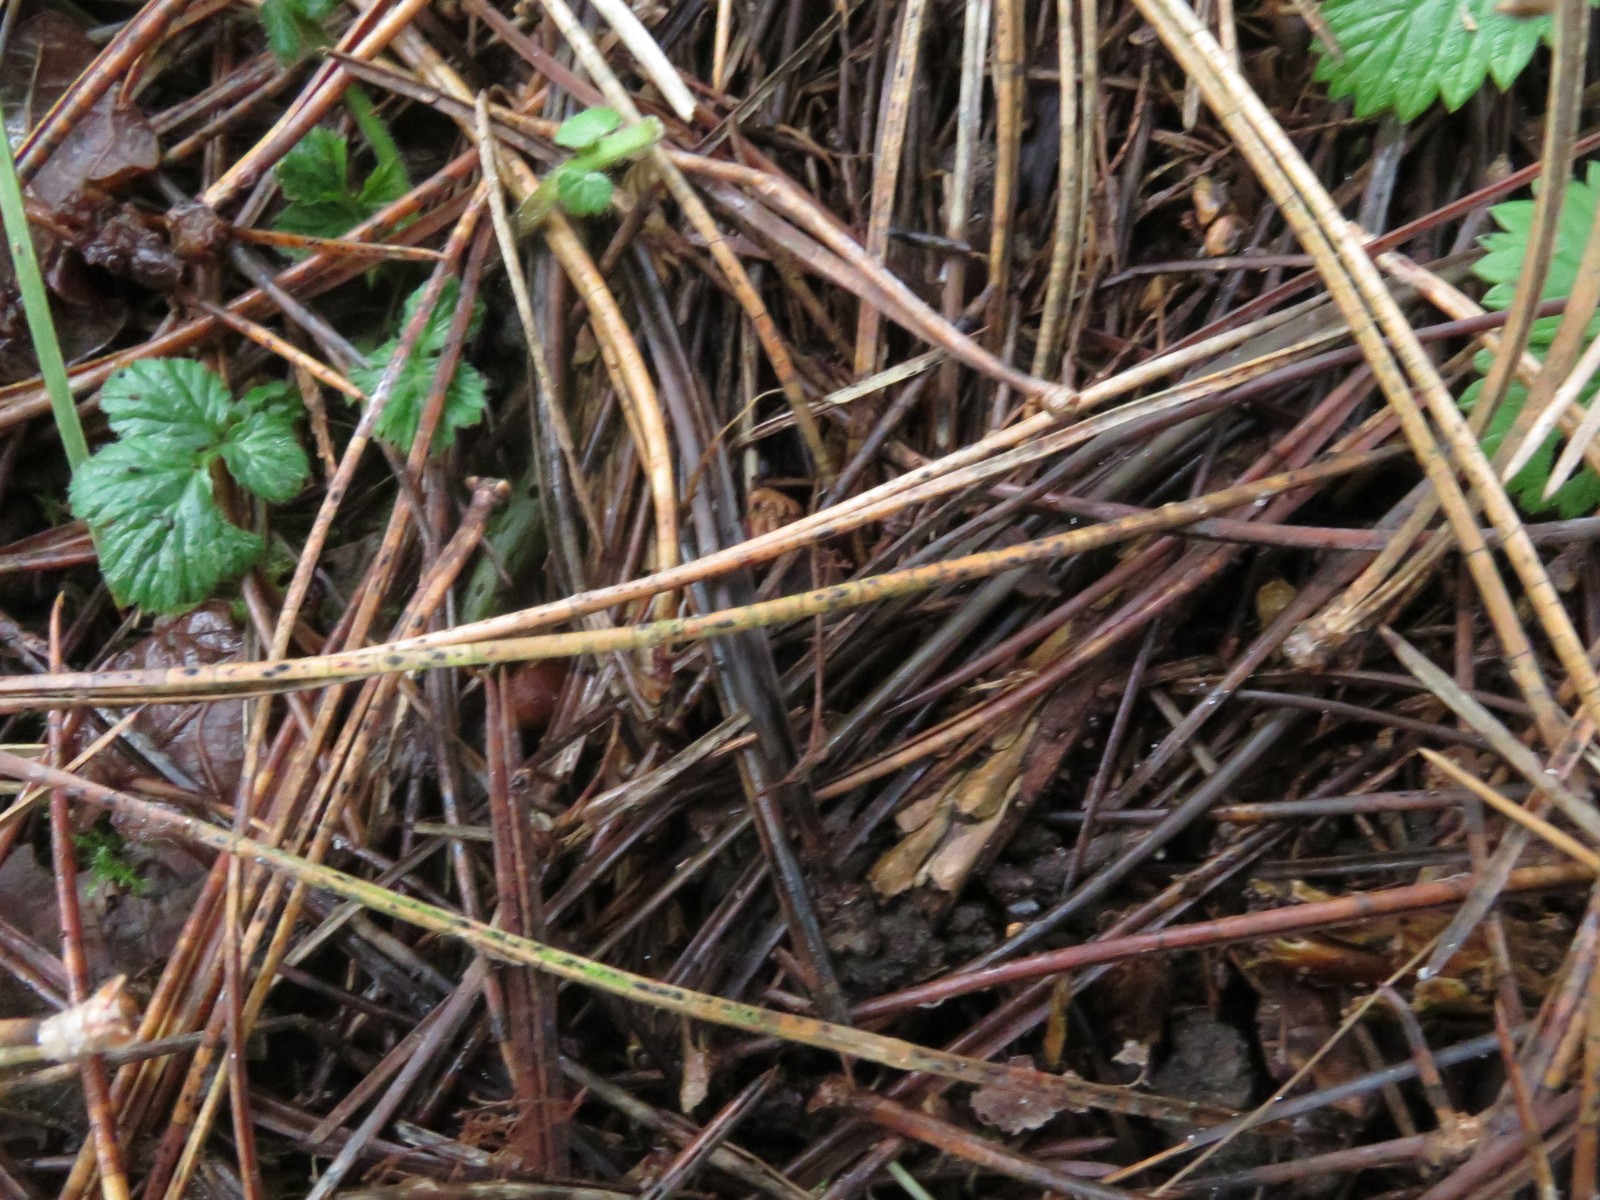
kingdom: Fungi
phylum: Ascomycota
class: Leotiomycetes
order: Rhytismatales
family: Rhytismataceae
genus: Lophodermium
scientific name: Lophodermium pinastri
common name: fyrre-fureplet
